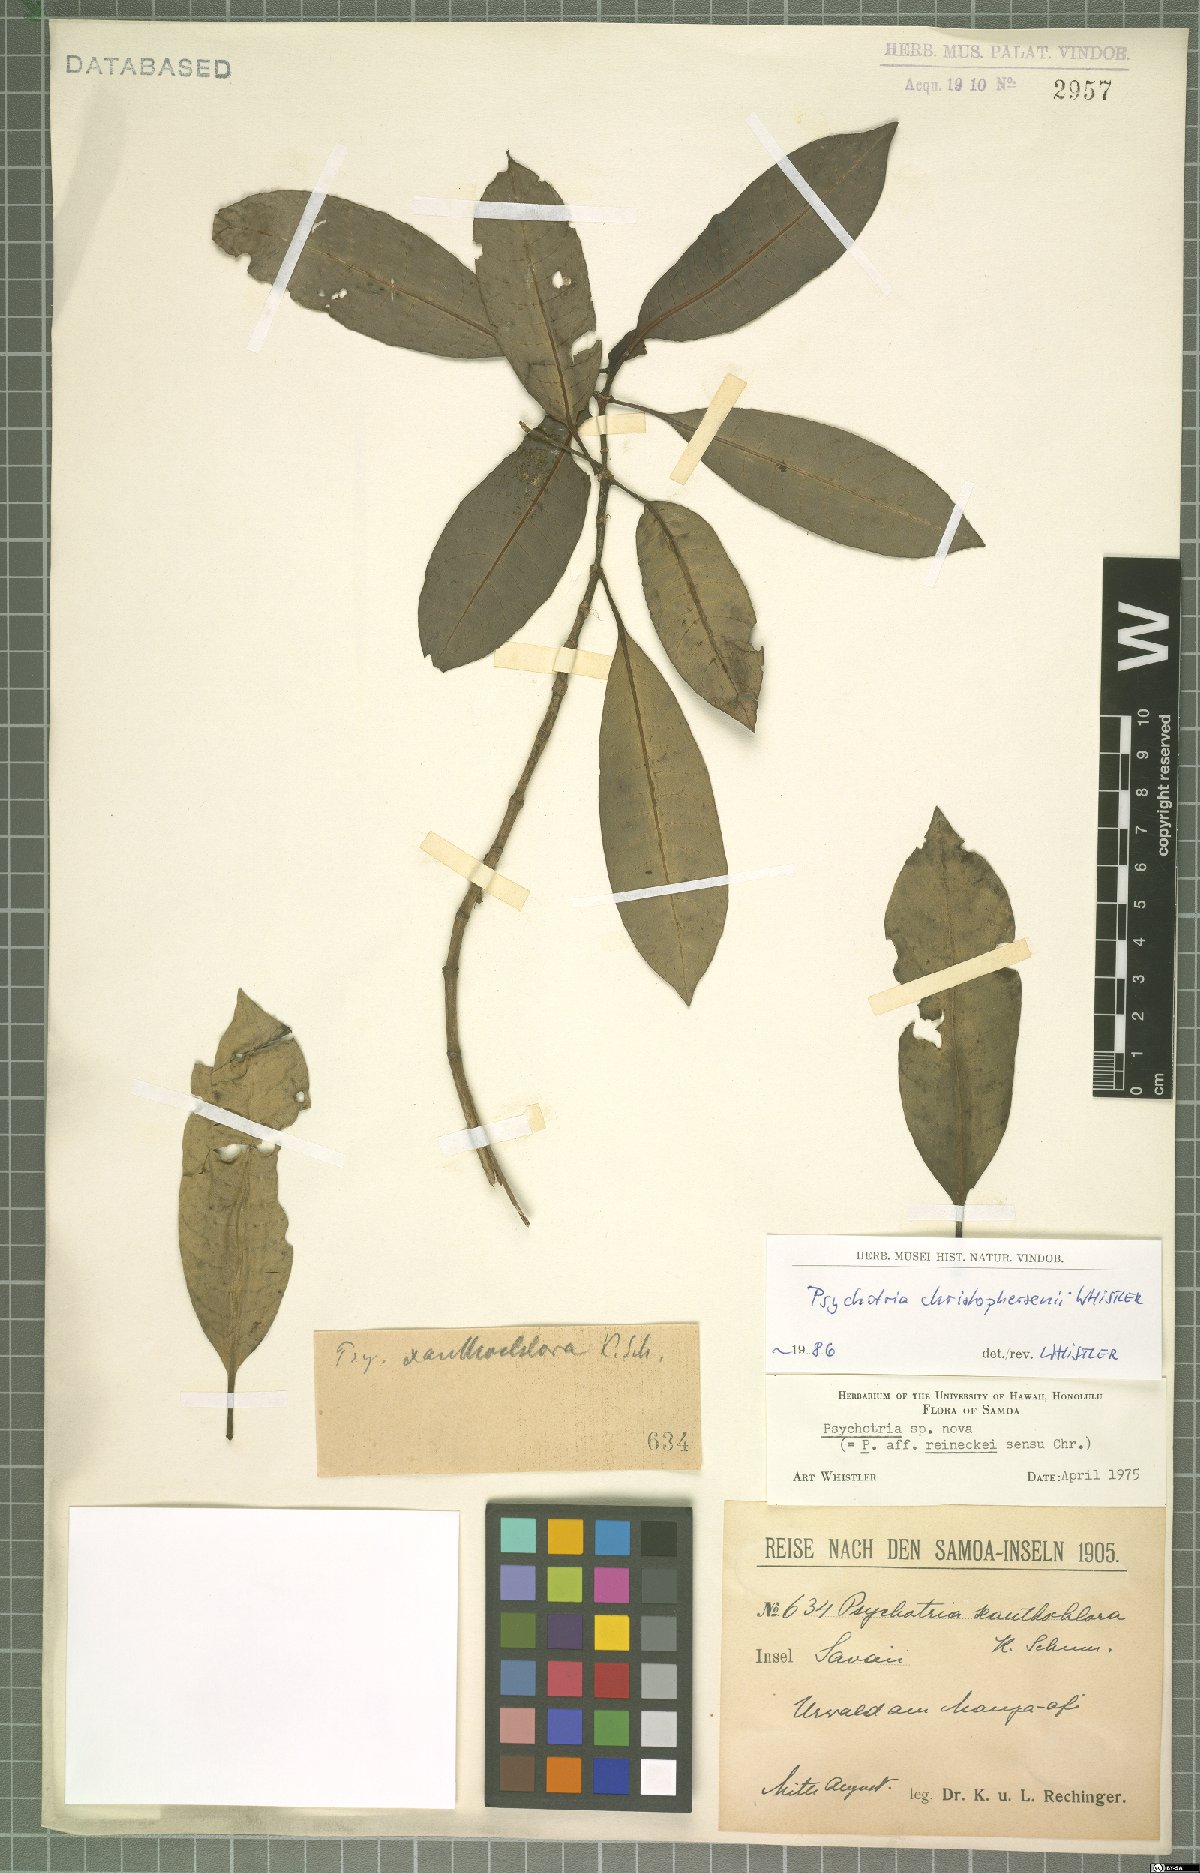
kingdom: Plantae
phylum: Tracheophyta
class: Magnoliopsida
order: Gentianales
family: Rubiaceae
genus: Psychotria
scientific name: Psychotria christophersenii
